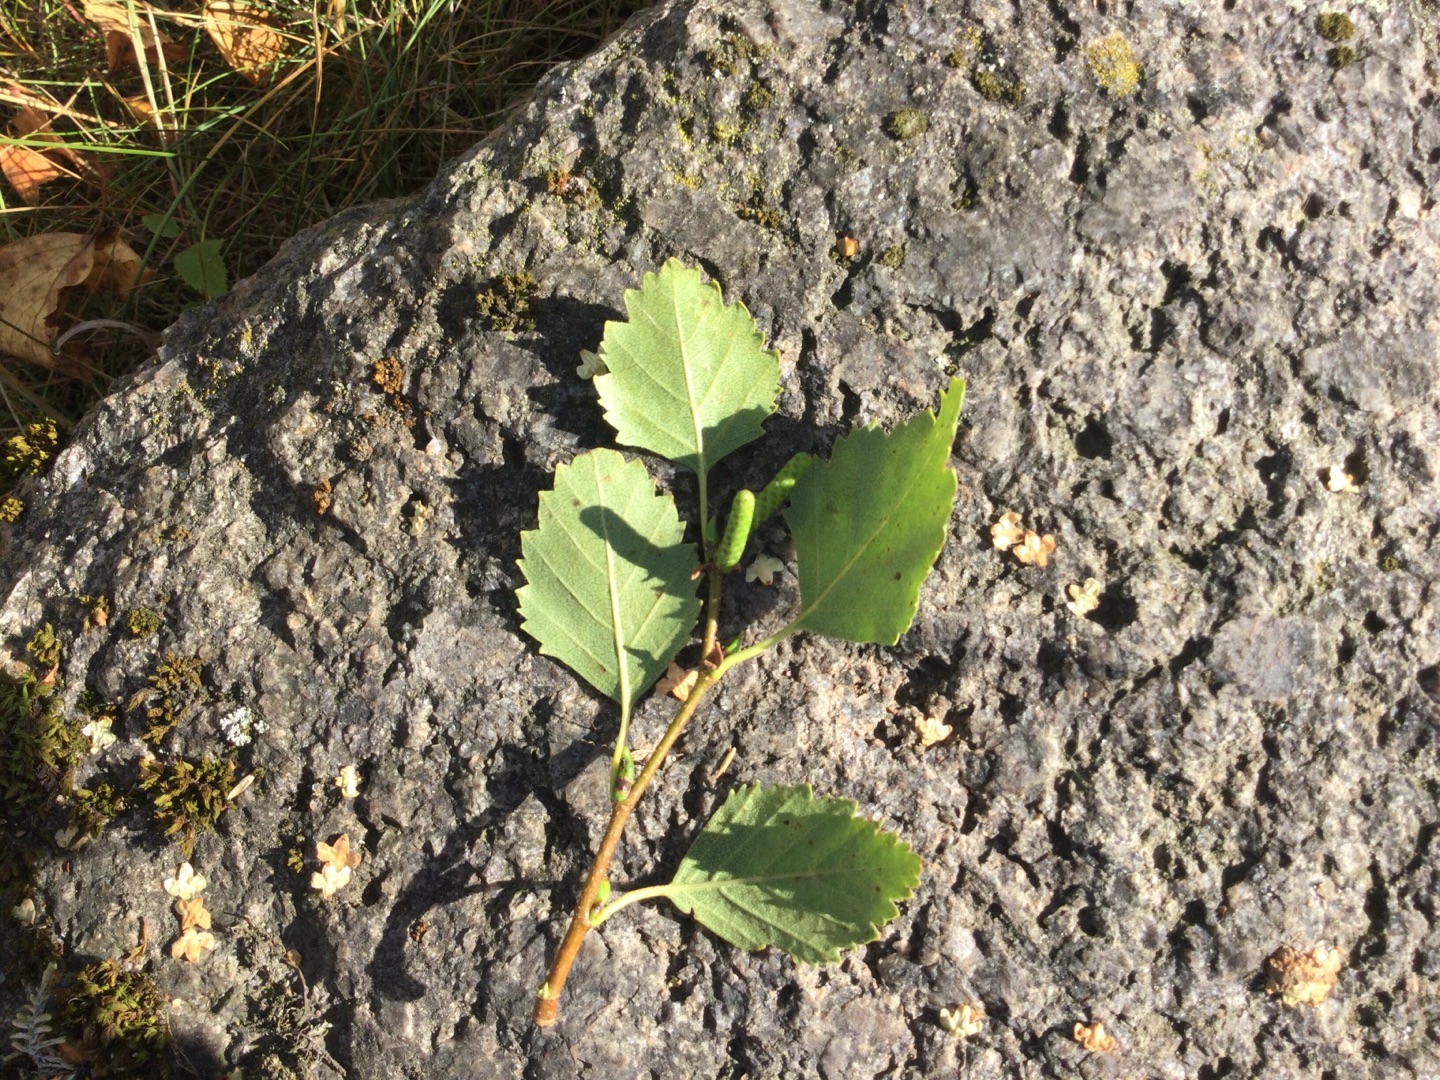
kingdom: Plantae
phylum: Tracheophyta
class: Magnoliopsida
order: Fagales
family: Betulaceae
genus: Betula
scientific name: Betula pendula
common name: Vorte-birk
